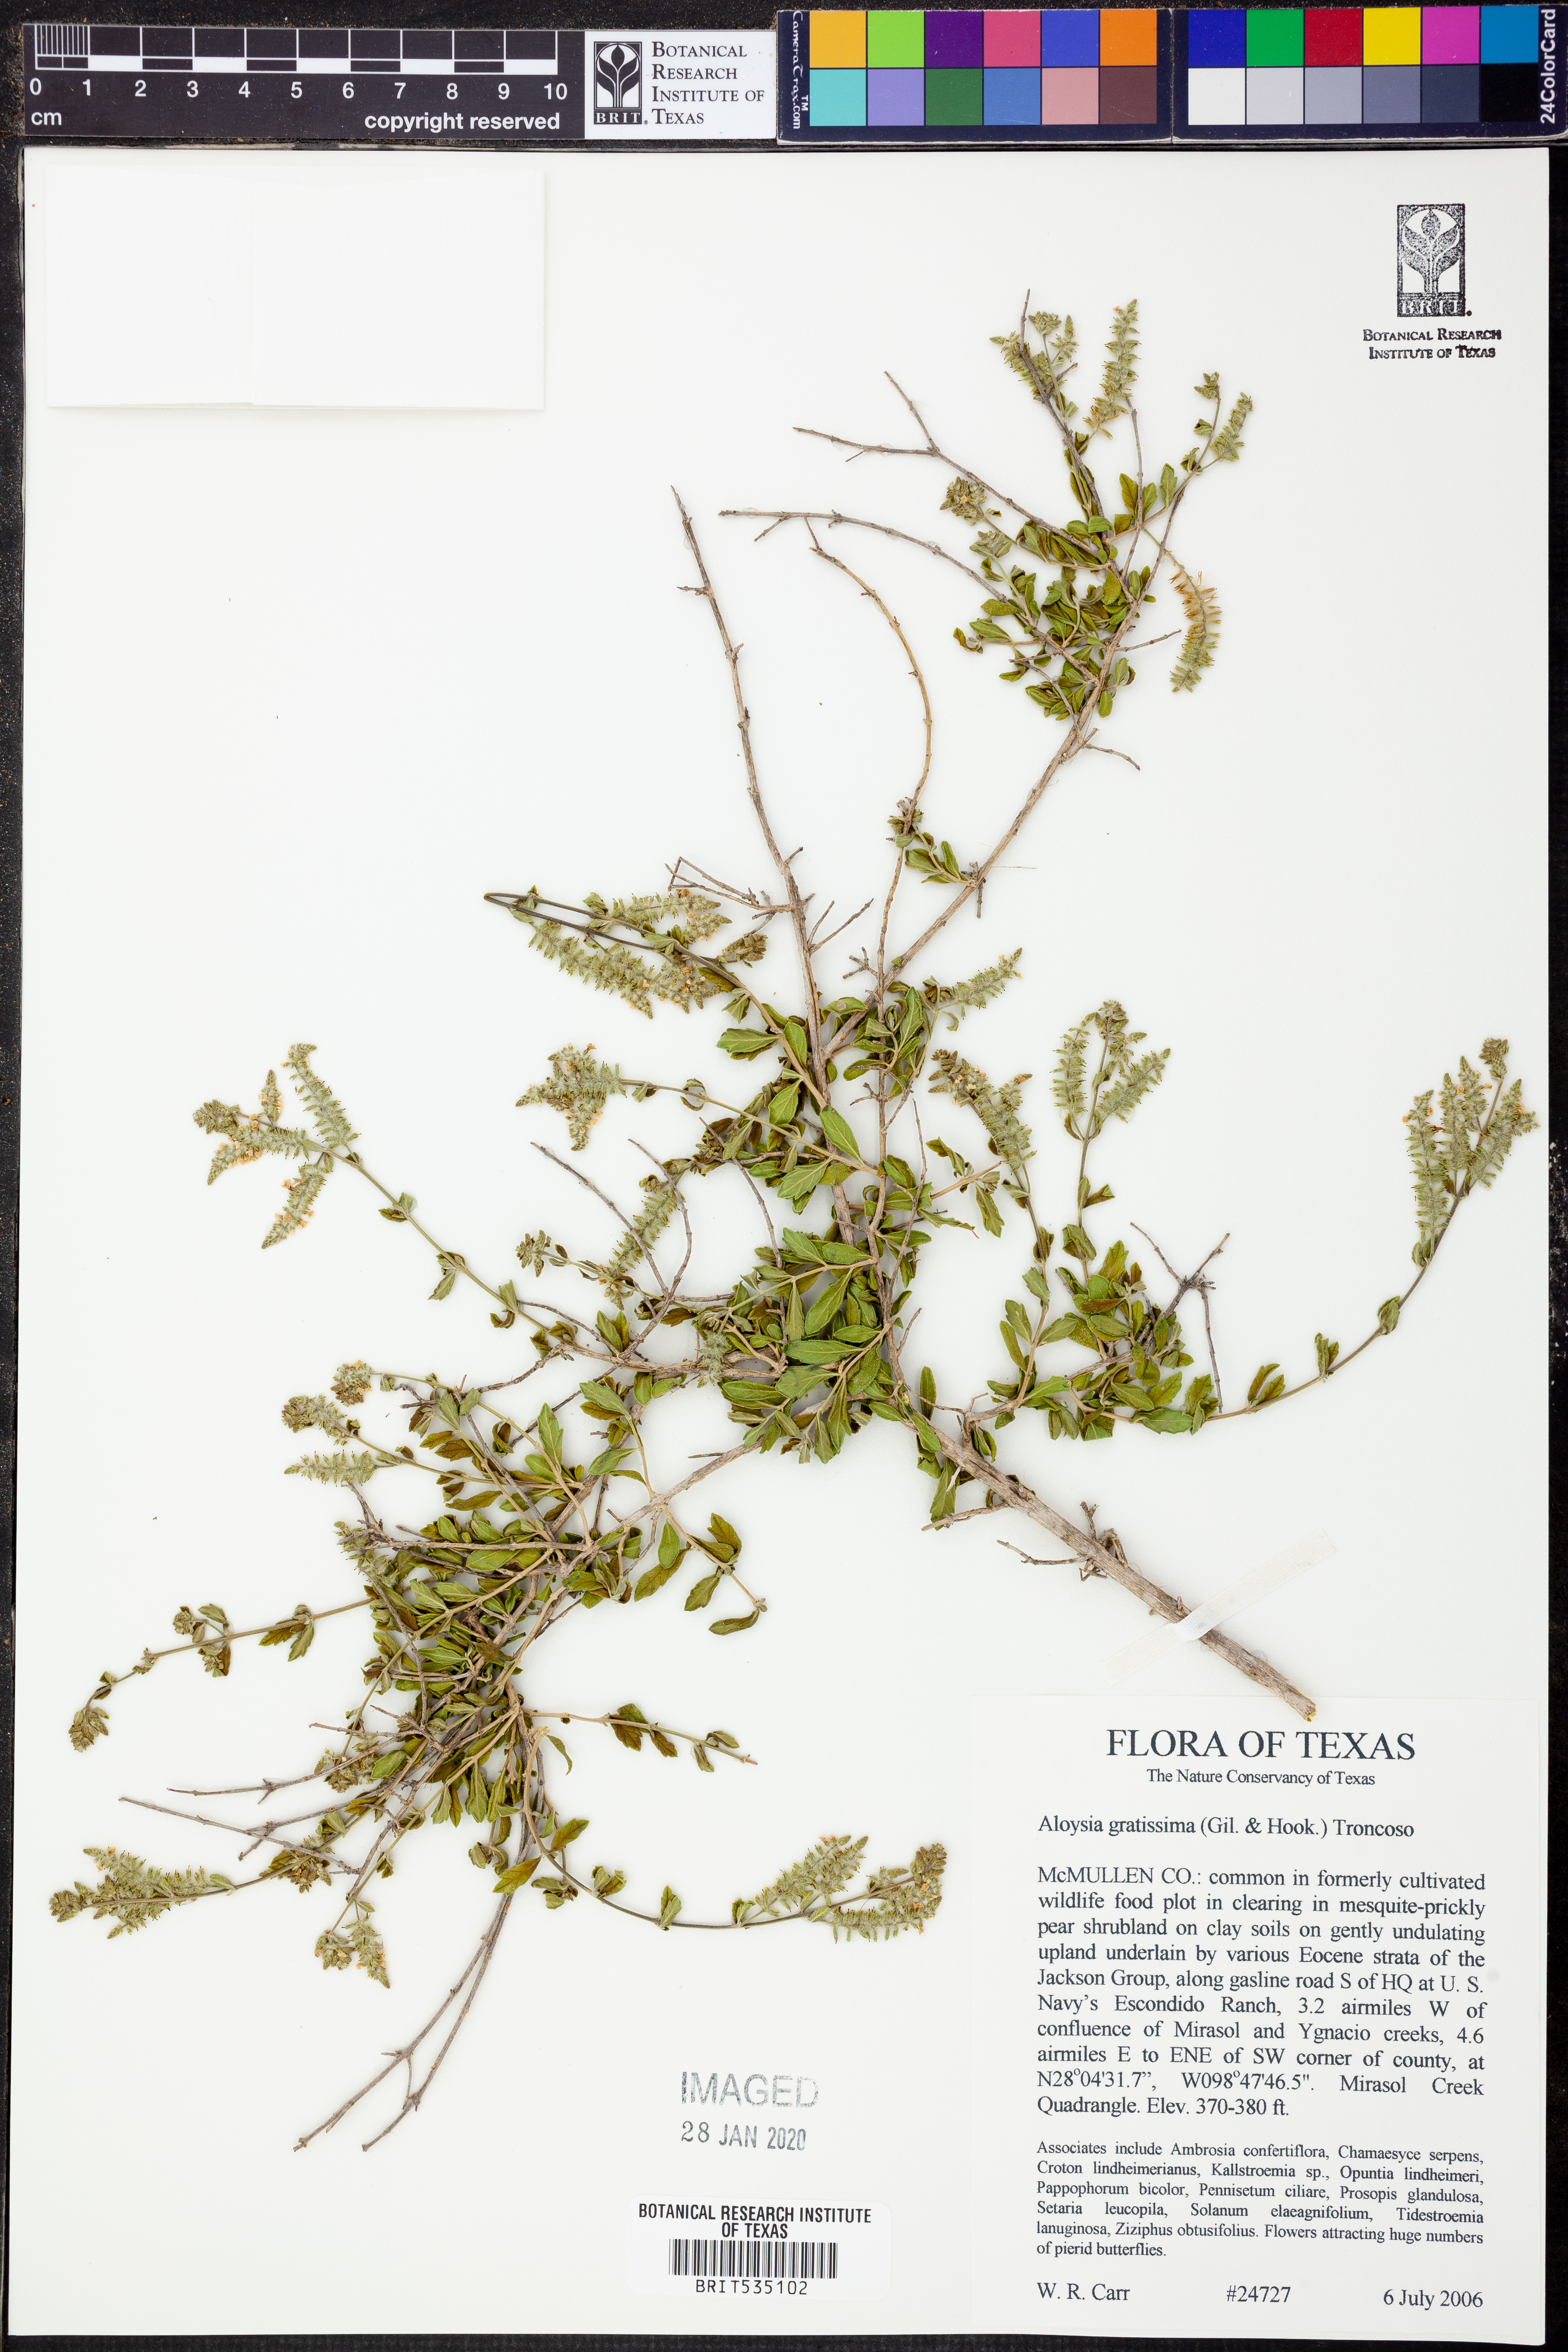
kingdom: Plantae
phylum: Tracheophyta
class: Magnoliopsida
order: Lamiales
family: Verbenaceae
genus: Aloysia
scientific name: Aloysia gratissima
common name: Common bee-brush
